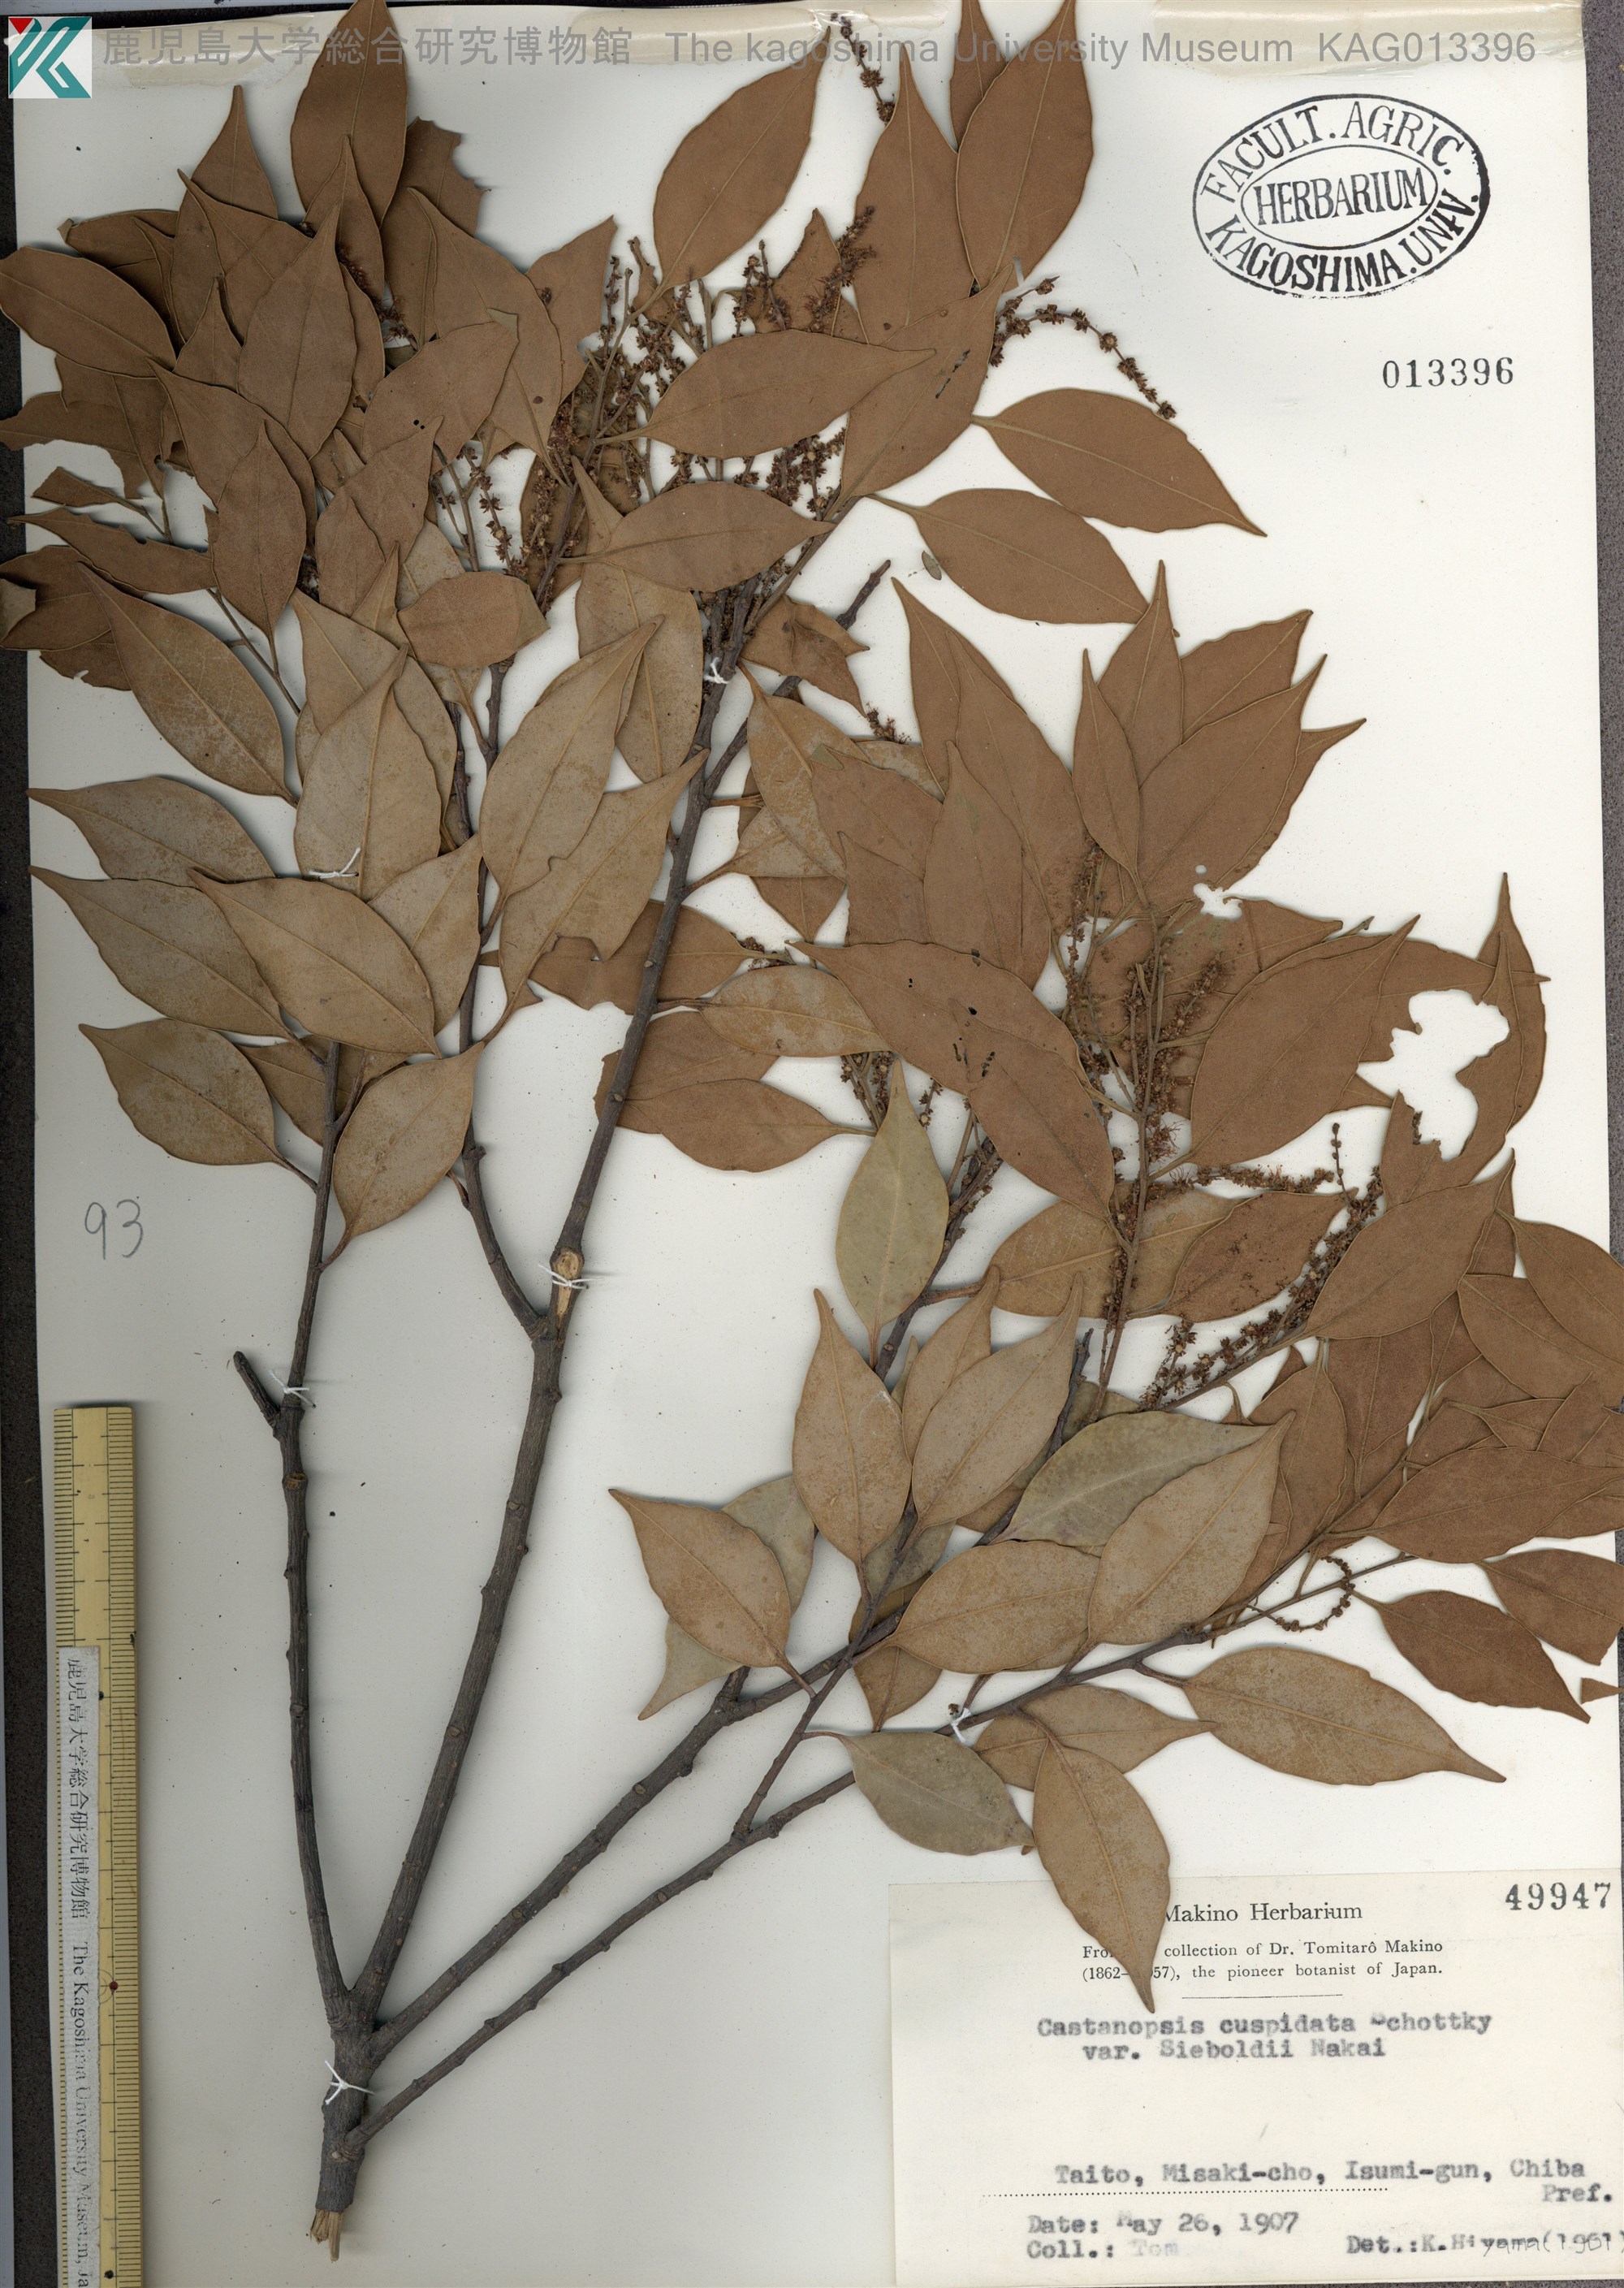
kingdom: Plantae
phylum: Tracheophyta
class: Magnoliopsida
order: Fagales
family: Fagaceae
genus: Castanopsis
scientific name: Castanopsis sieboldii
